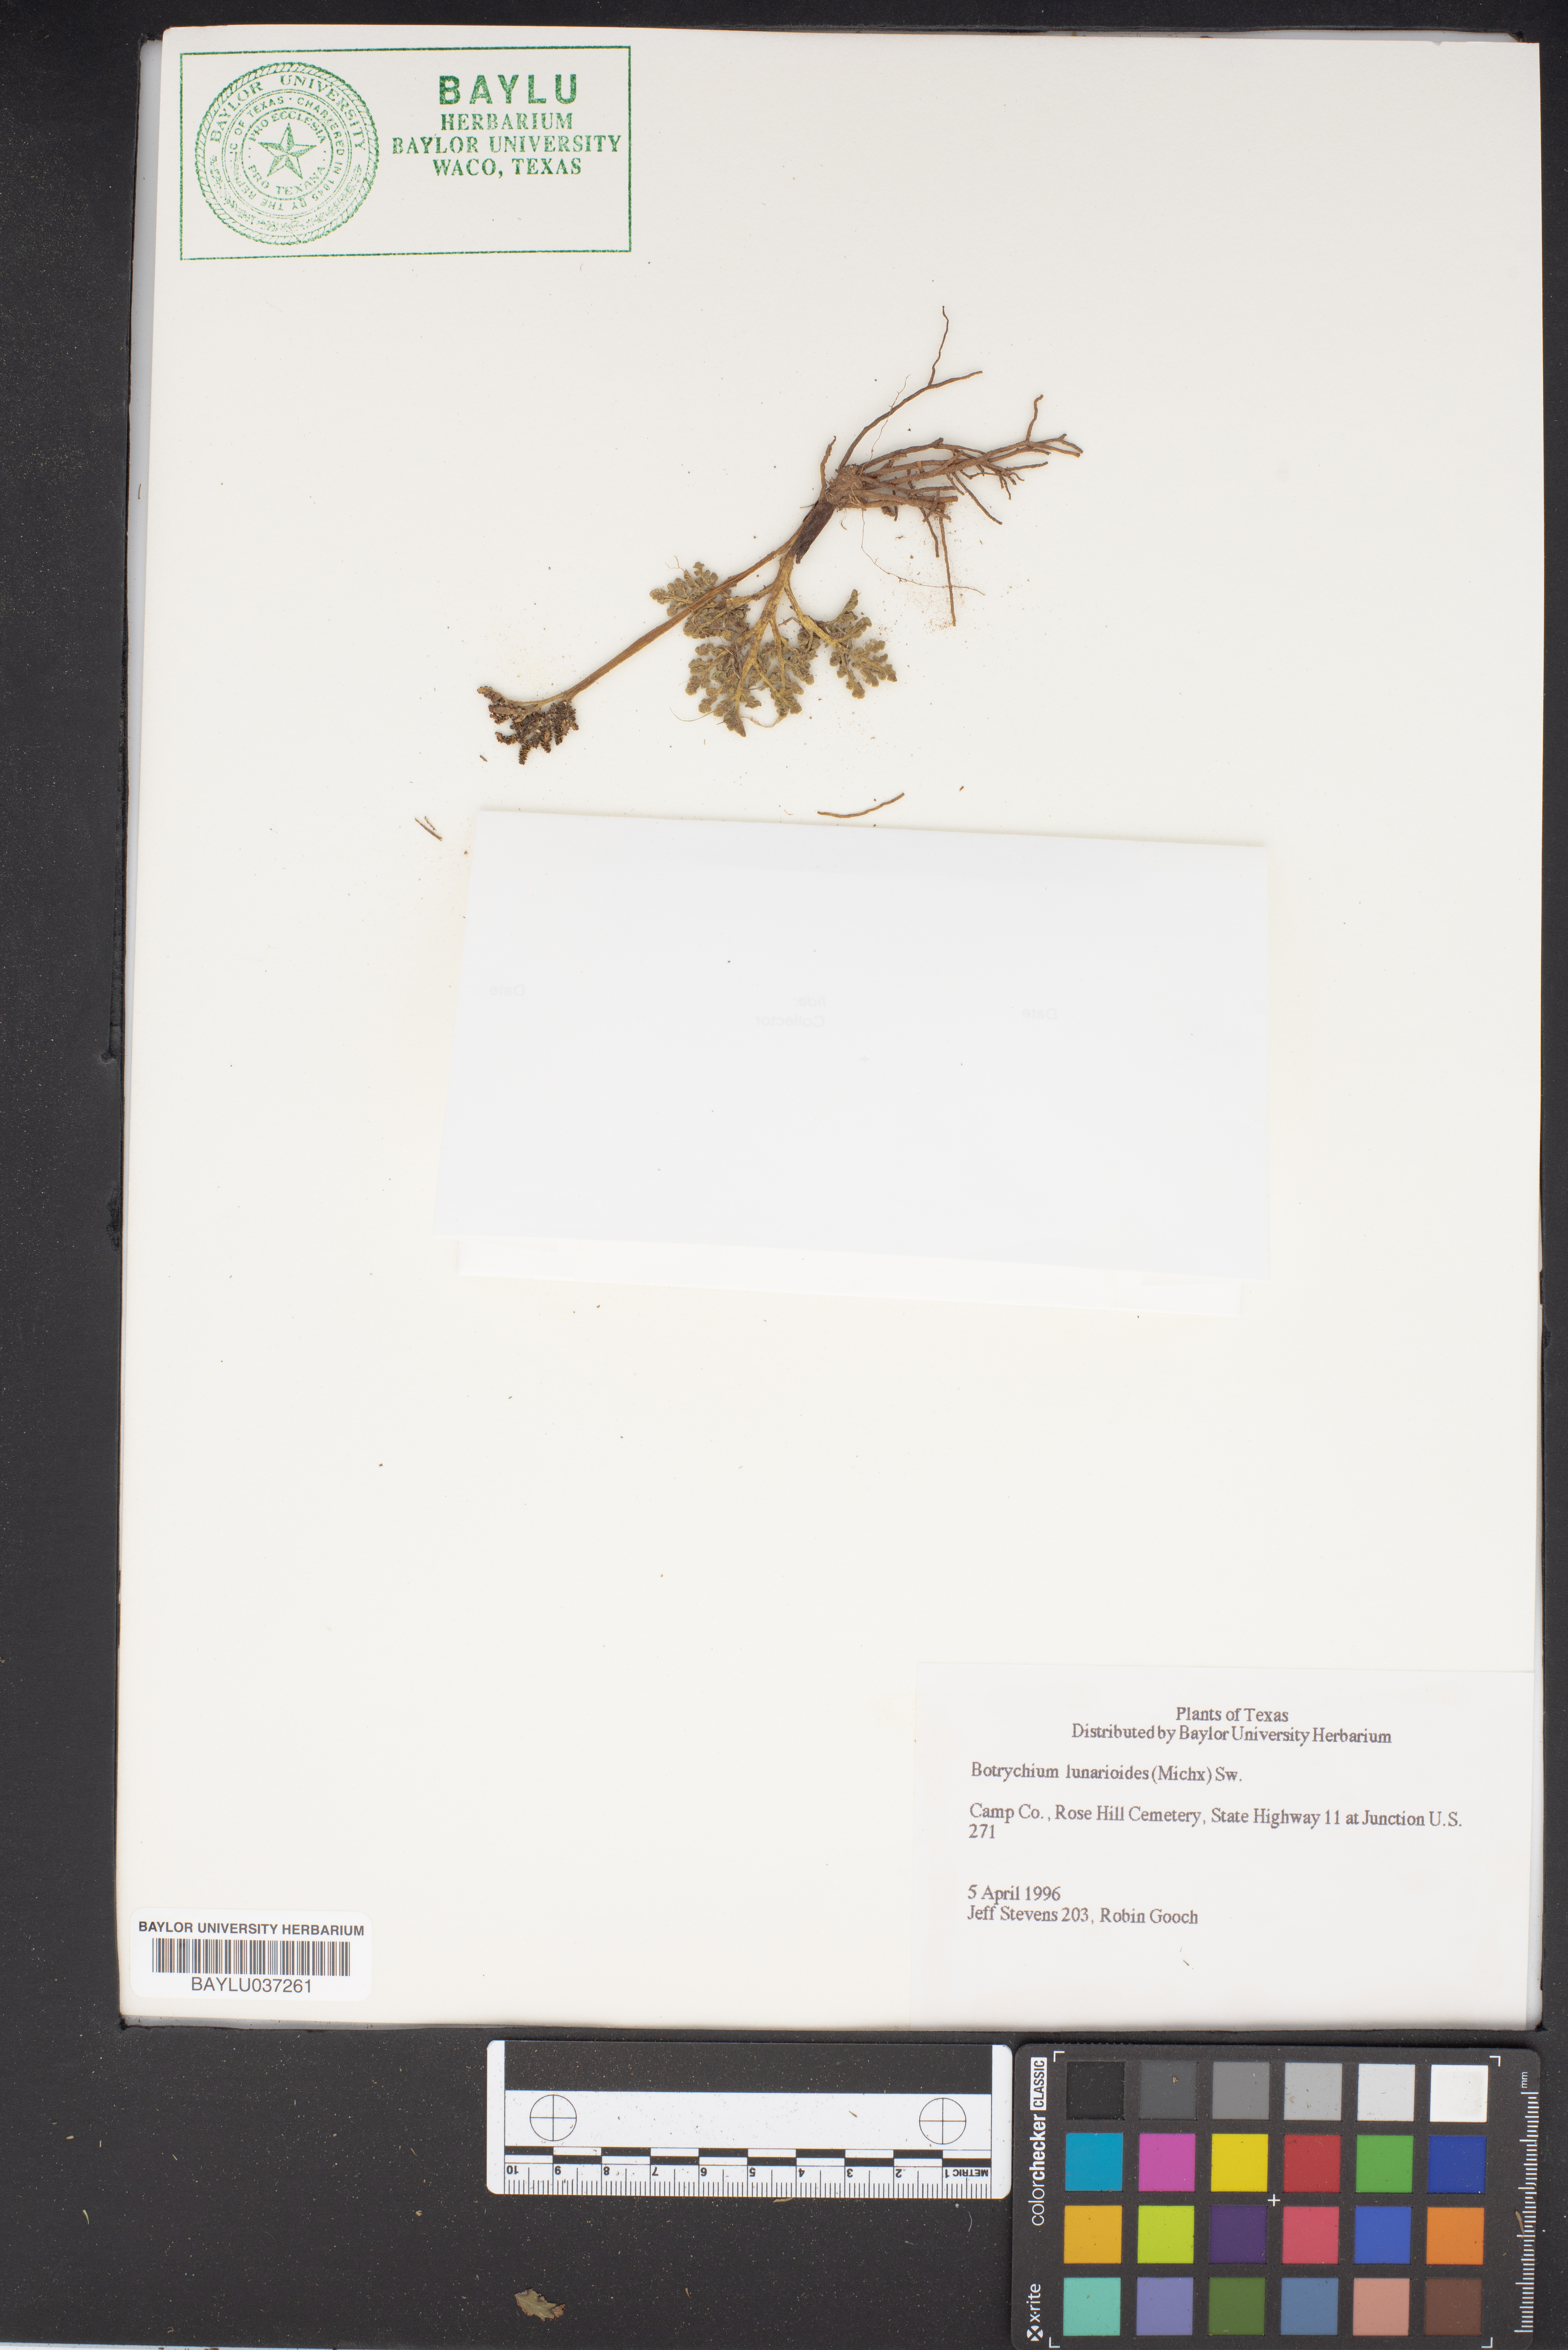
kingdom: Plantae
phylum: Tracheophyta
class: Polypodiopsida
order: Ophioglossales
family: Ophioglossaceae
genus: Sceptridium
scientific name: Sceptridium lunarioides
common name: Prostrate grapefern
